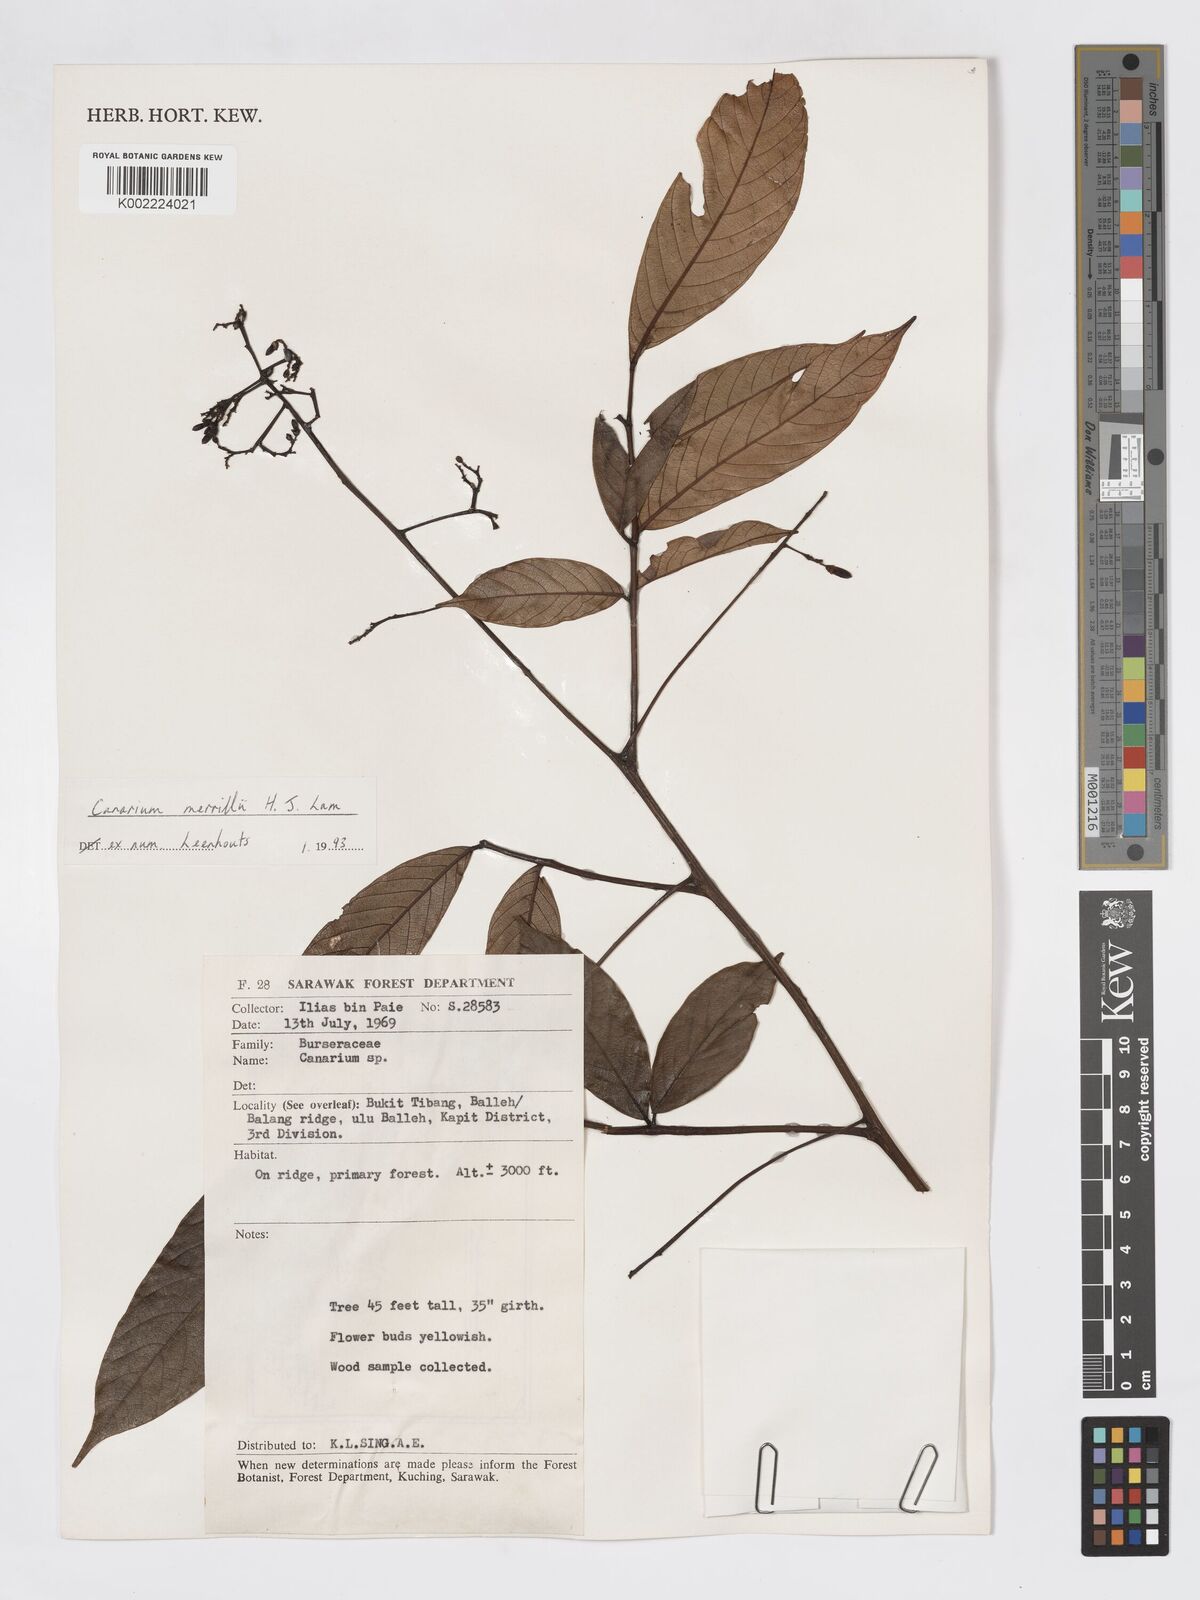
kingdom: Plantae
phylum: Tracheophyta
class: Magnoliopsida
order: Sapindales
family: Burseraceae
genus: Canarium
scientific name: Canarium merrillii
